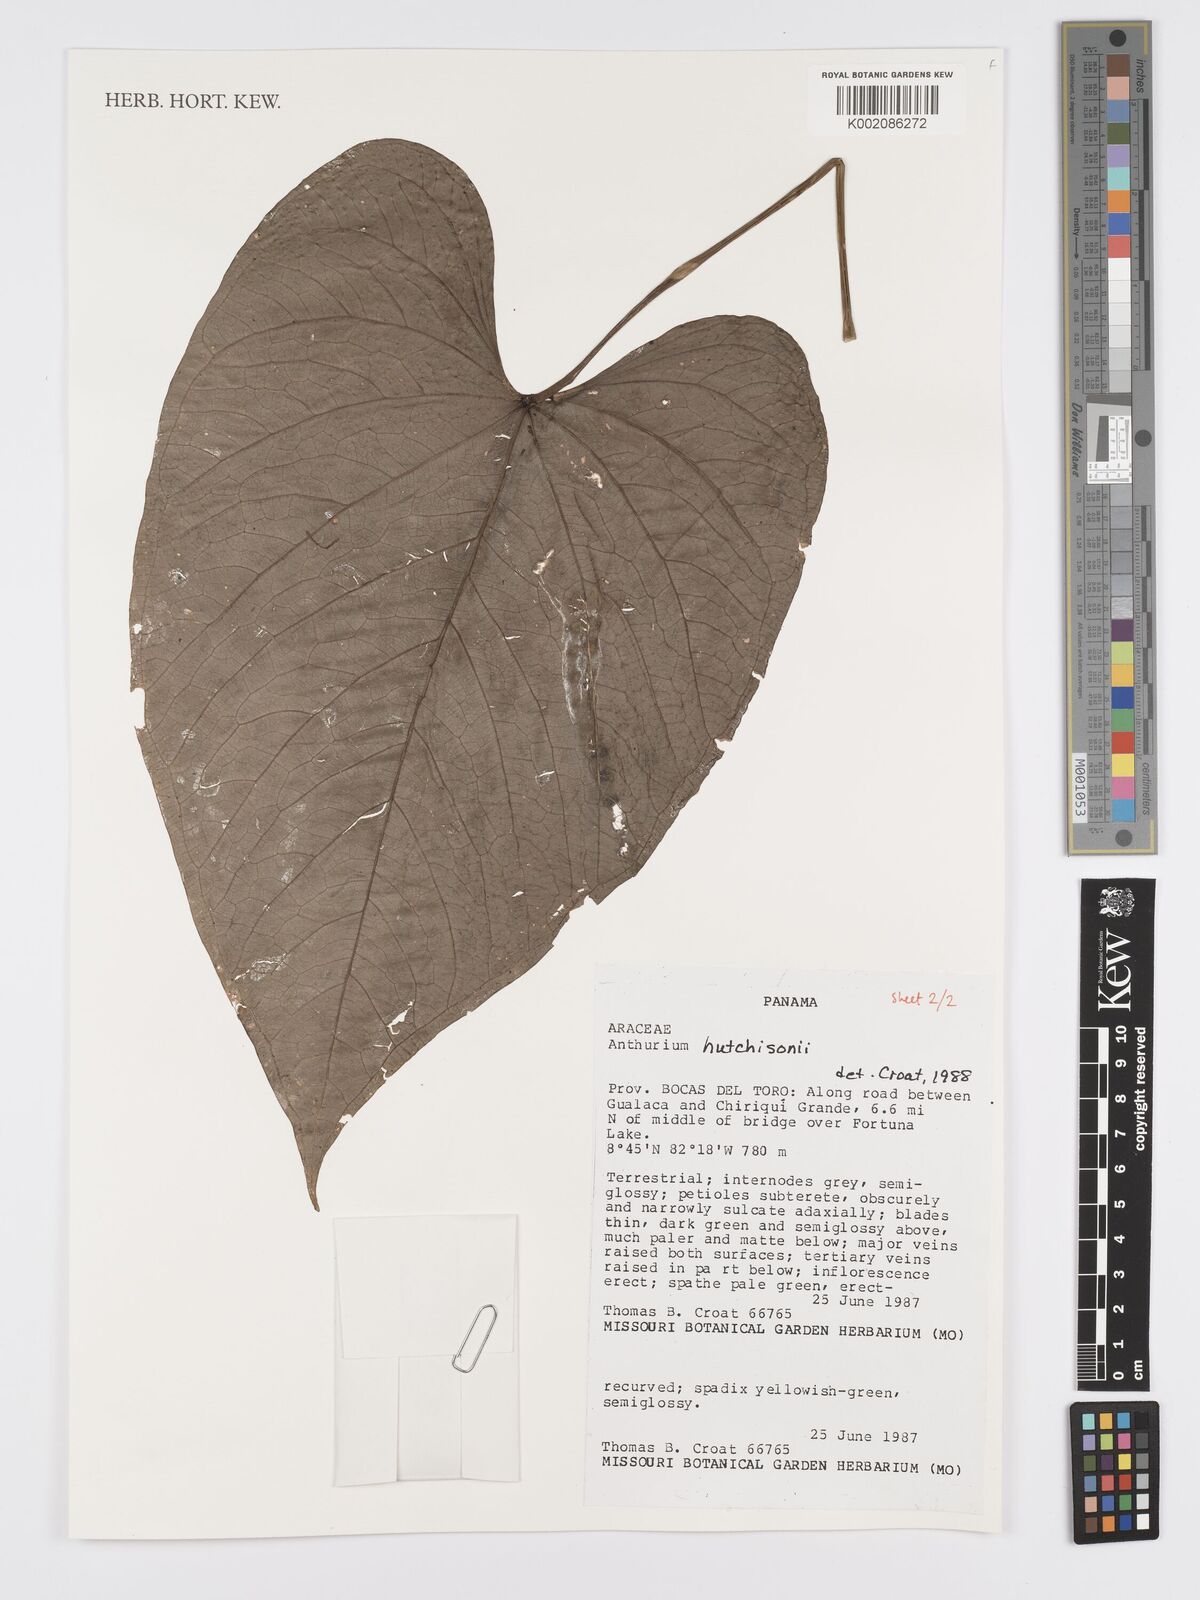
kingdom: Plantae
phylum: Tracheophyta
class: Liliopsida
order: Alismatales
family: Araceae
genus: Anthurium
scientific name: Anthurium hutchisonii
